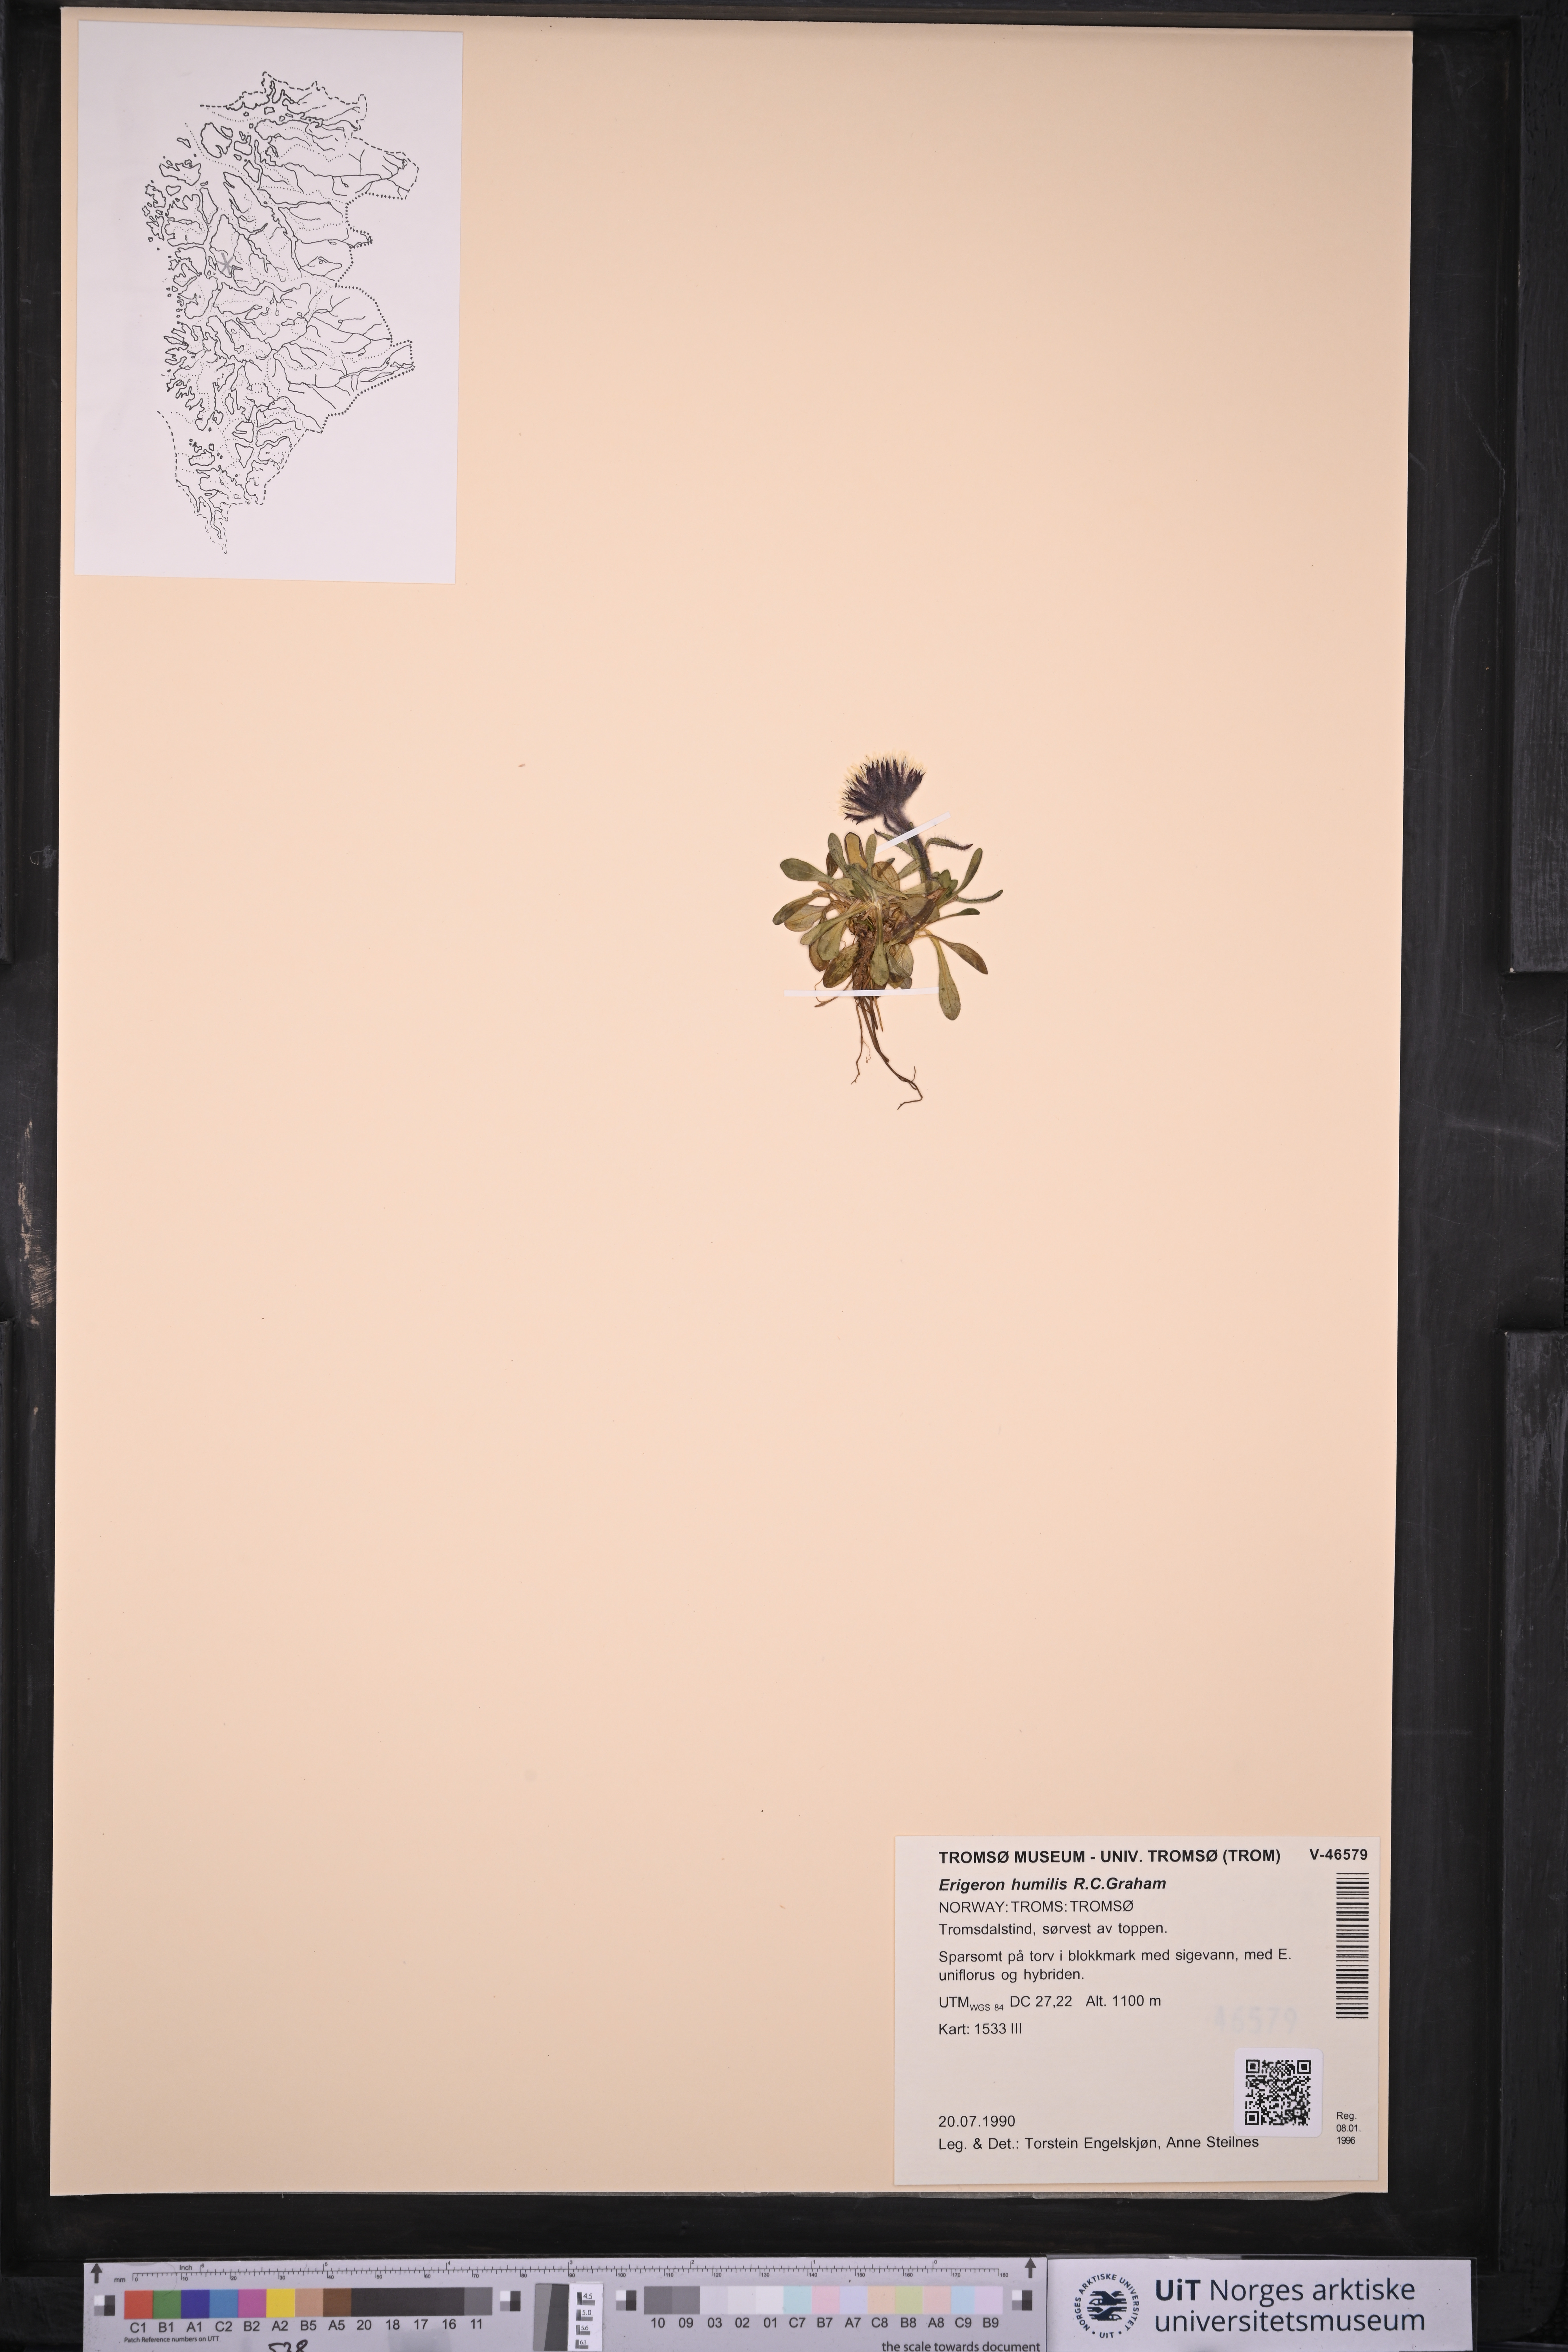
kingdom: Plantae
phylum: Tracheophyta
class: Magnoliopsida
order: Asterales
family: Asteraceae
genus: Erigeron
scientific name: Erigeron humilis
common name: Arctic-alpine fleabane
